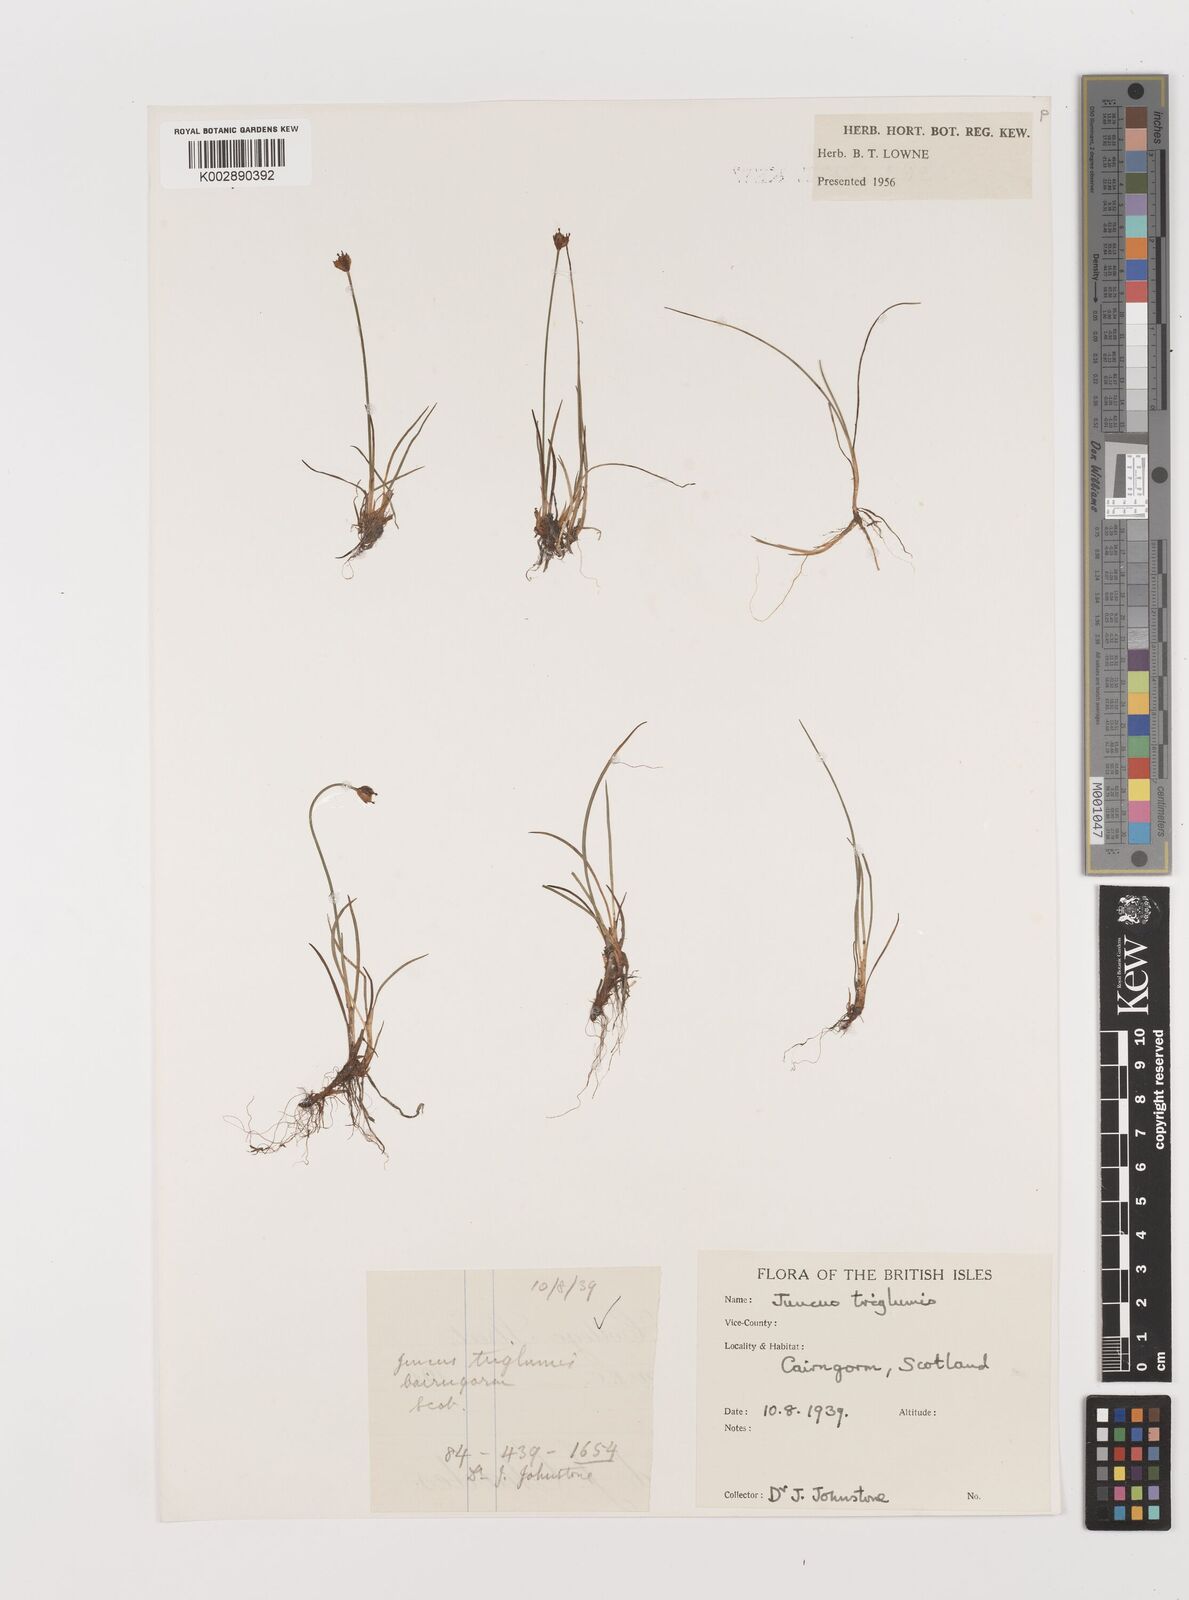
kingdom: Plantae
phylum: Tracheophyta
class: Liliopsida
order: Poales
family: Juncaceae
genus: Juncus
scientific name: Juncus triglumis
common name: Three-flowered rush
